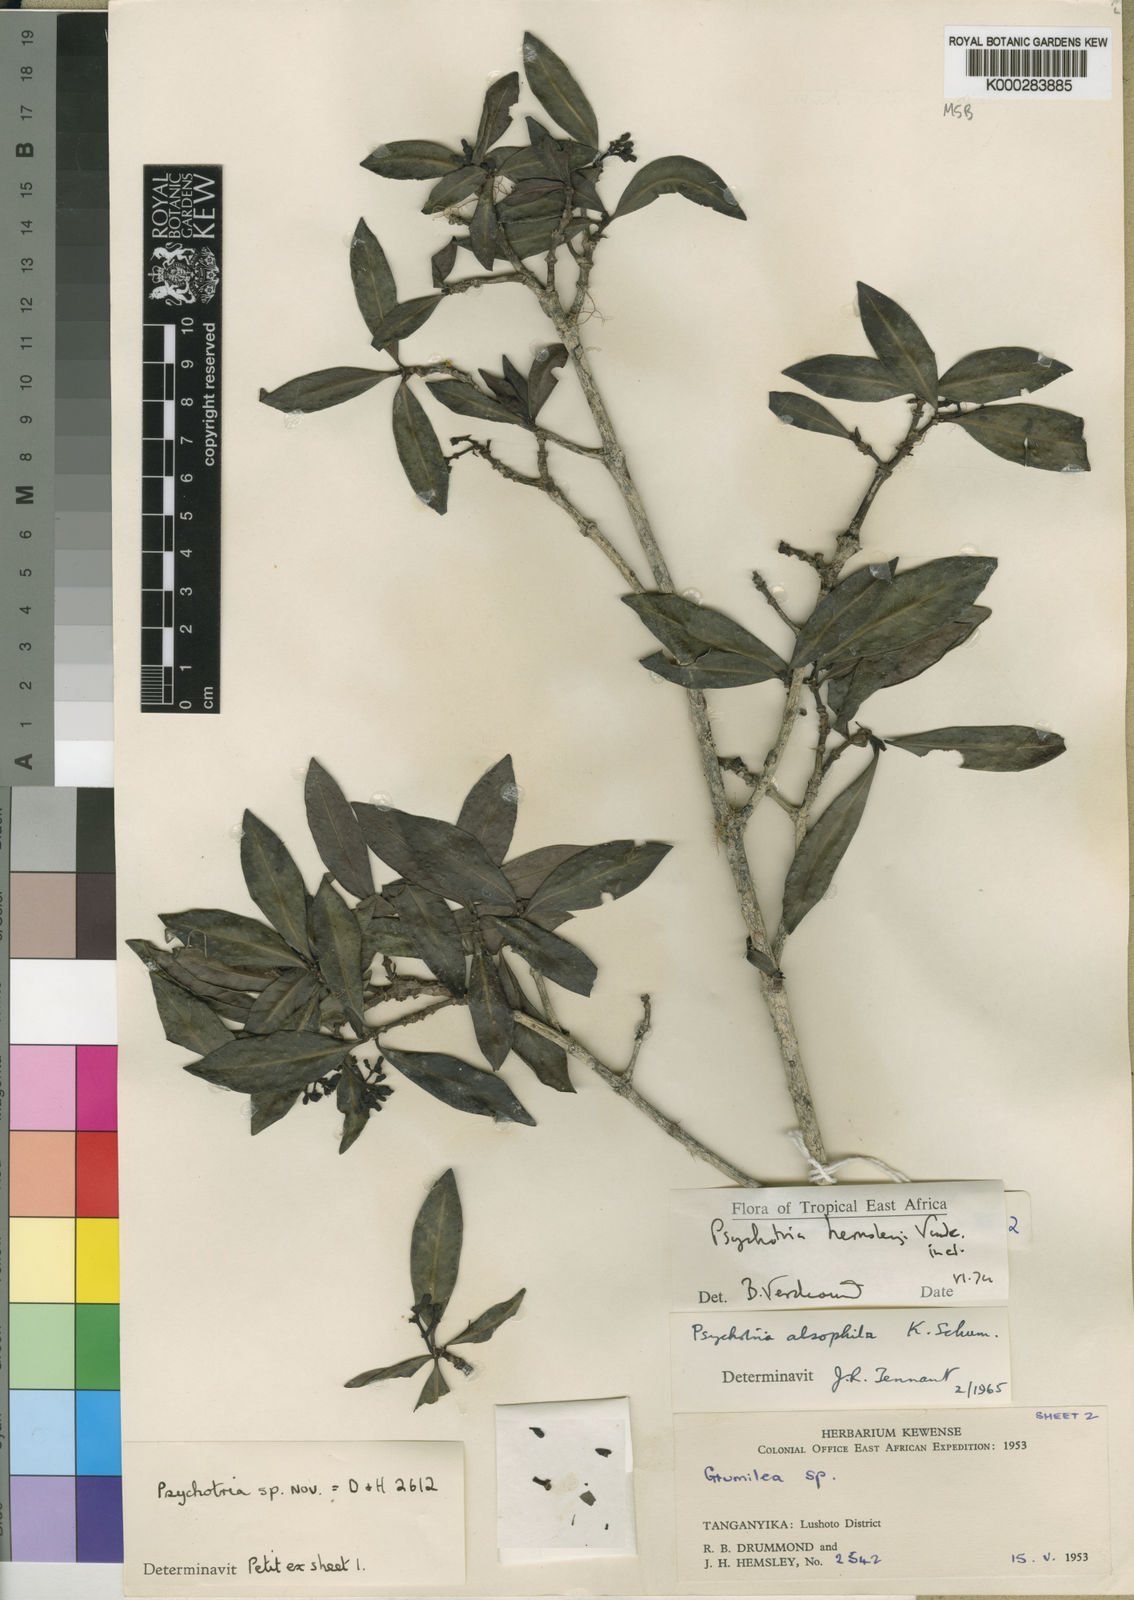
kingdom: Plantae
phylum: Tracheophyta
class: Magnoliopsida
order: Gentianales
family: Rubiaceae
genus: Psychotria
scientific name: Psychotria hemsleyi
